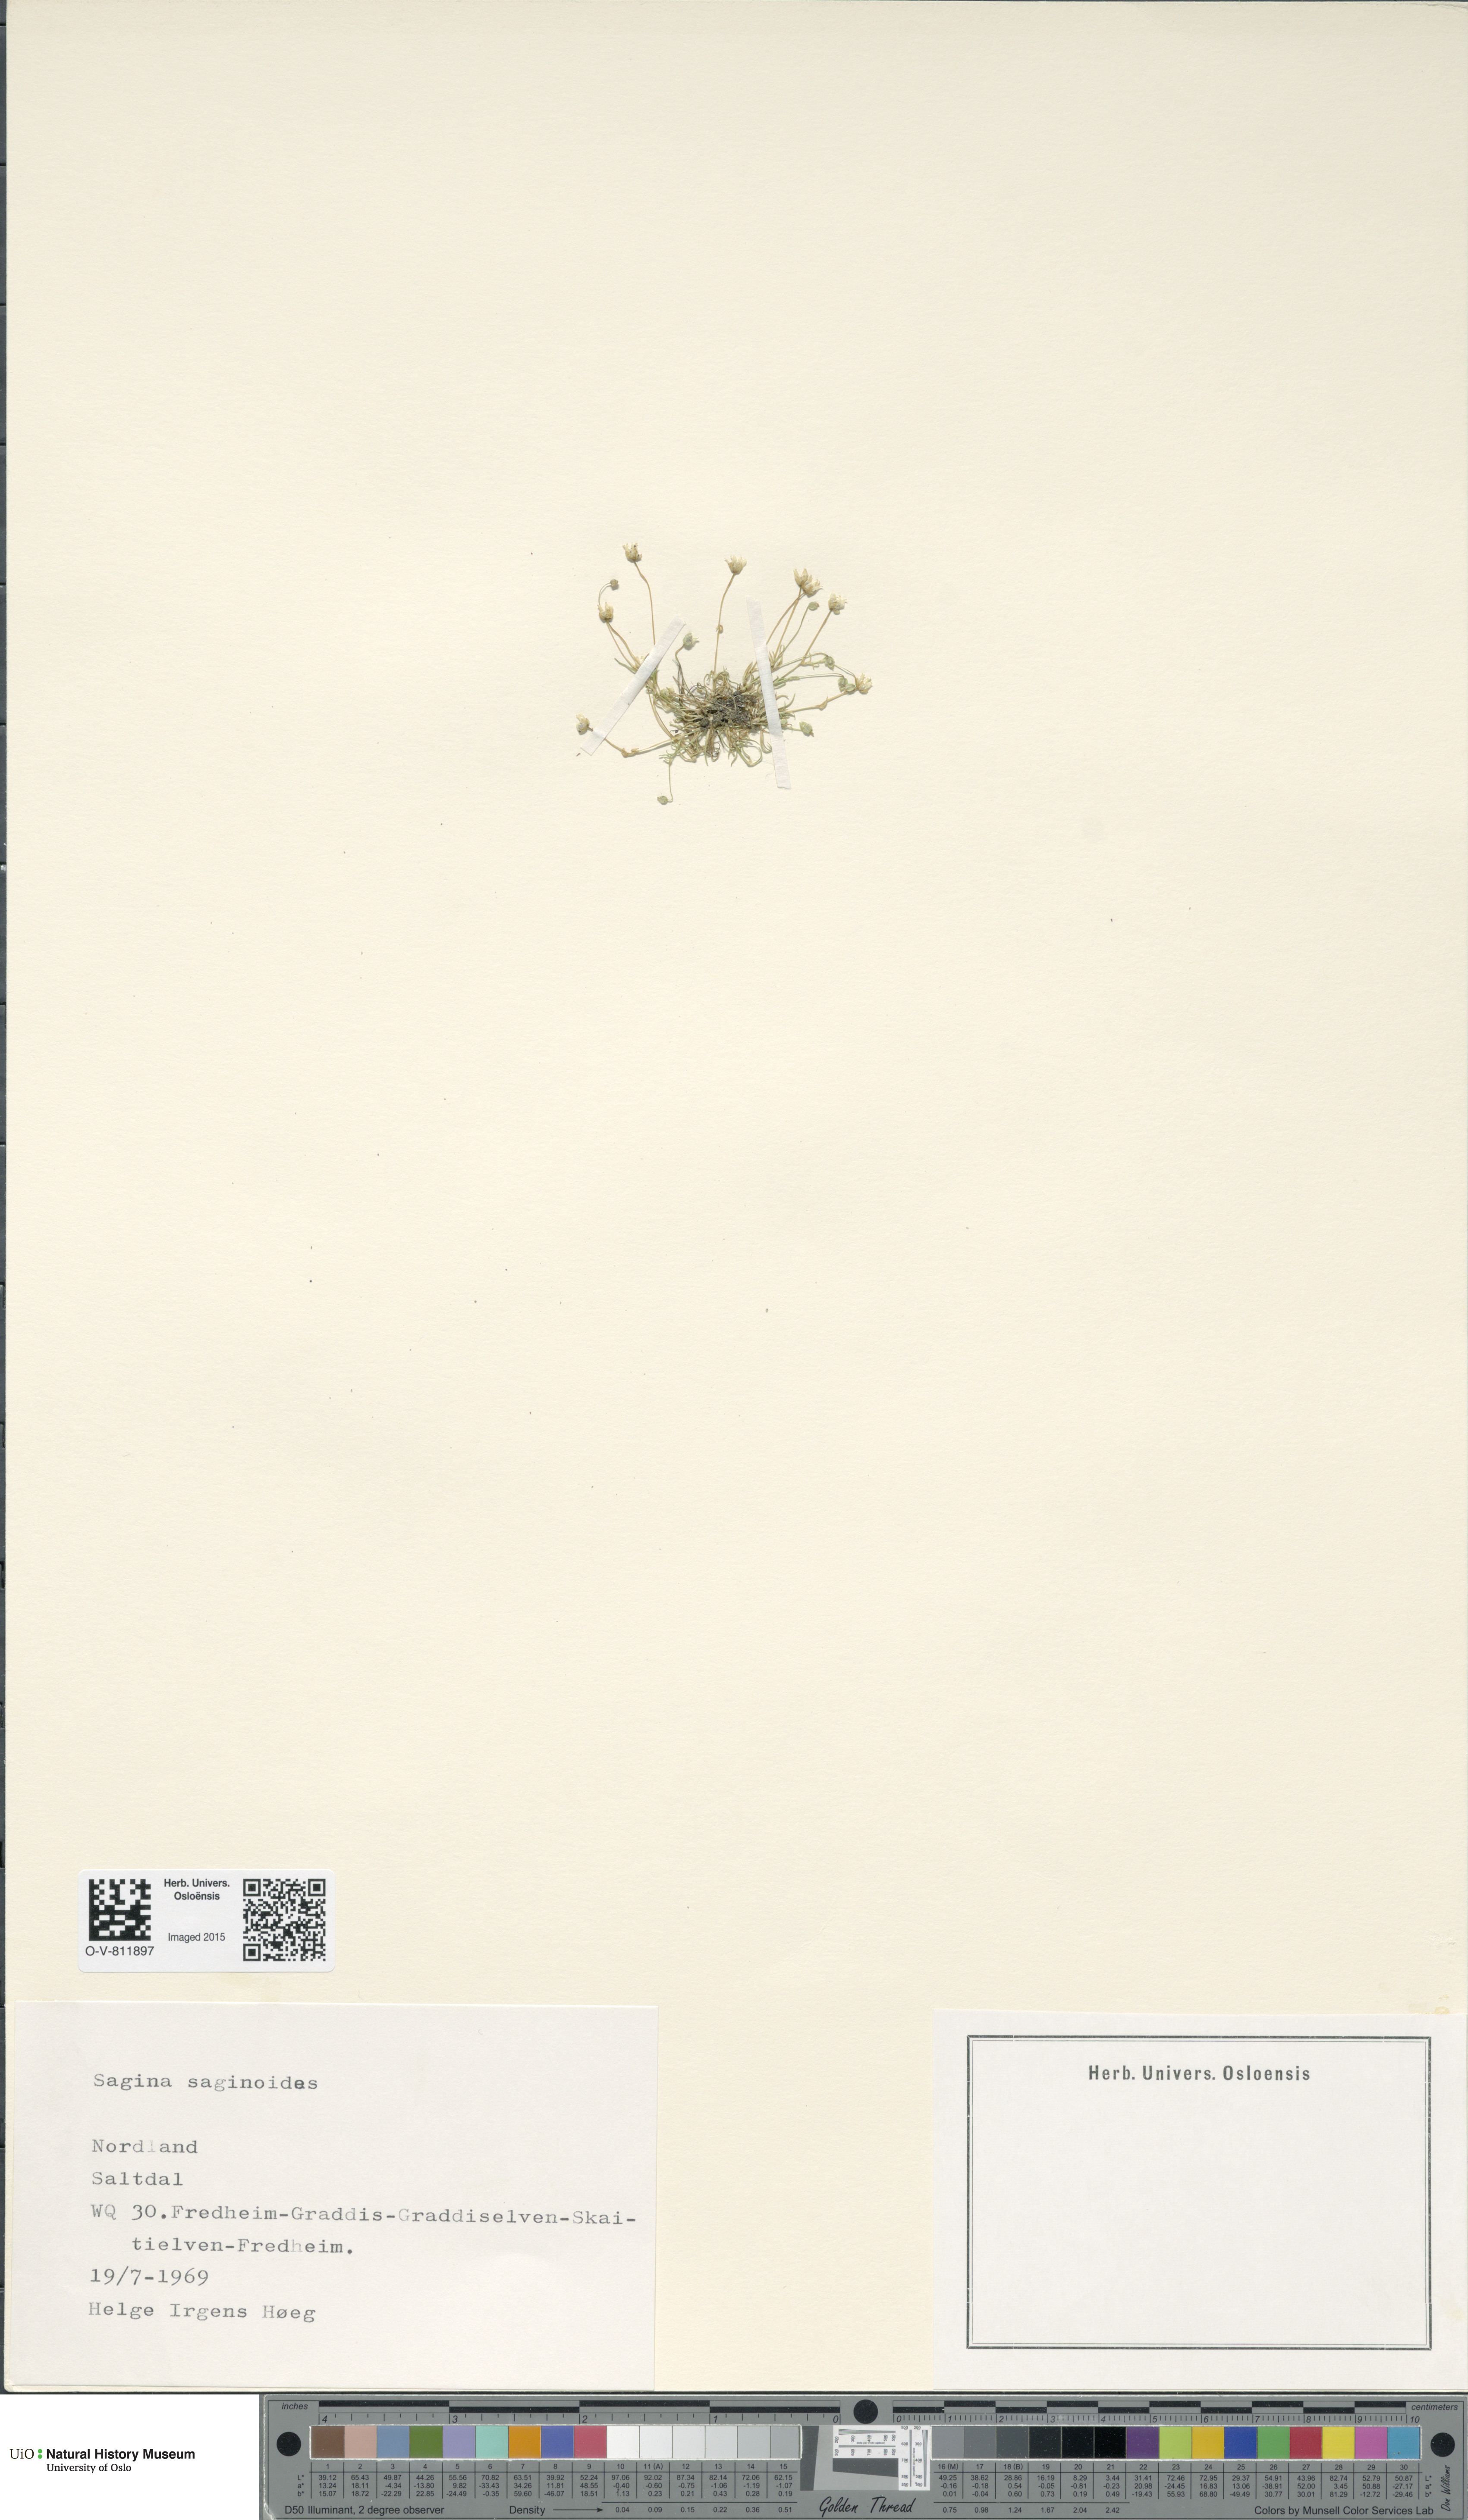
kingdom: Plantae
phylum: Tracheophyta
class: Magnoliopsida
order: Caryophyllales
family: Caryophyllaceae
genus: Sagina
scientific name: Sagina saginoides
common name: Alpine pearlwort
